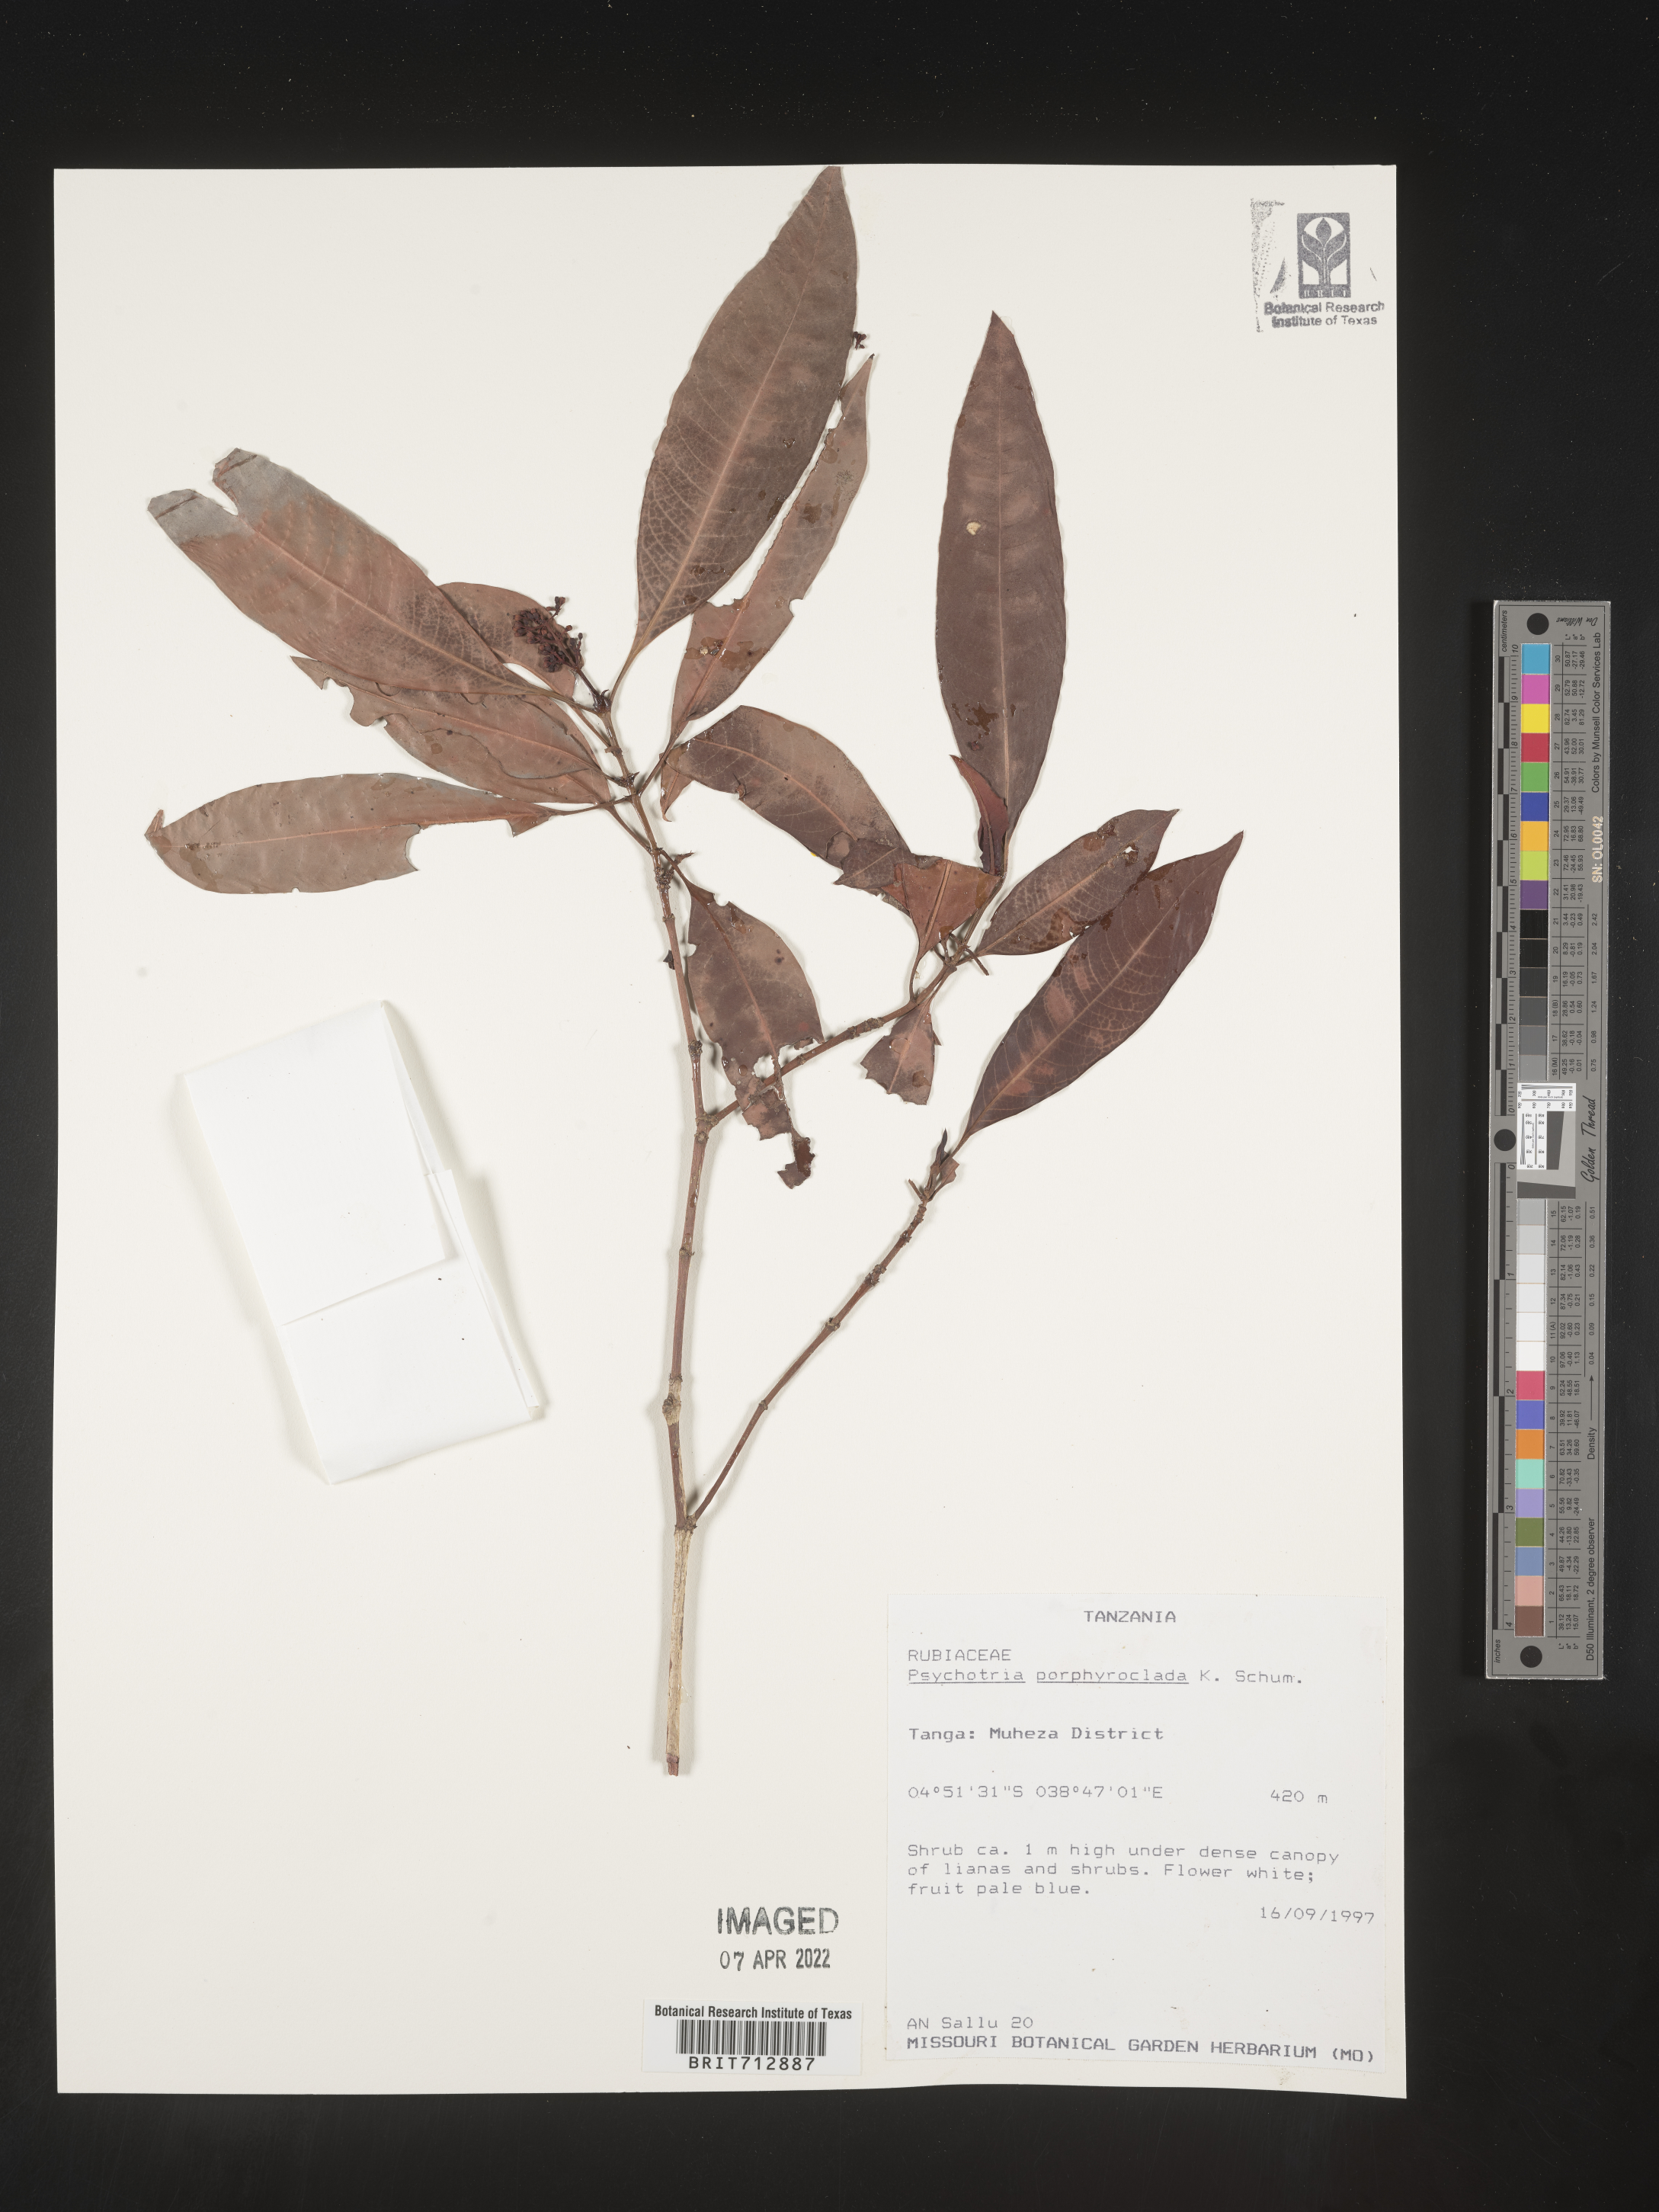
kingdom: Plantae
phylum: Tracheophyta
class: Magnoliopsida
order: Gentianales
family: Rubiaceae
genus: Psychotria
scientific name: Psychotria
